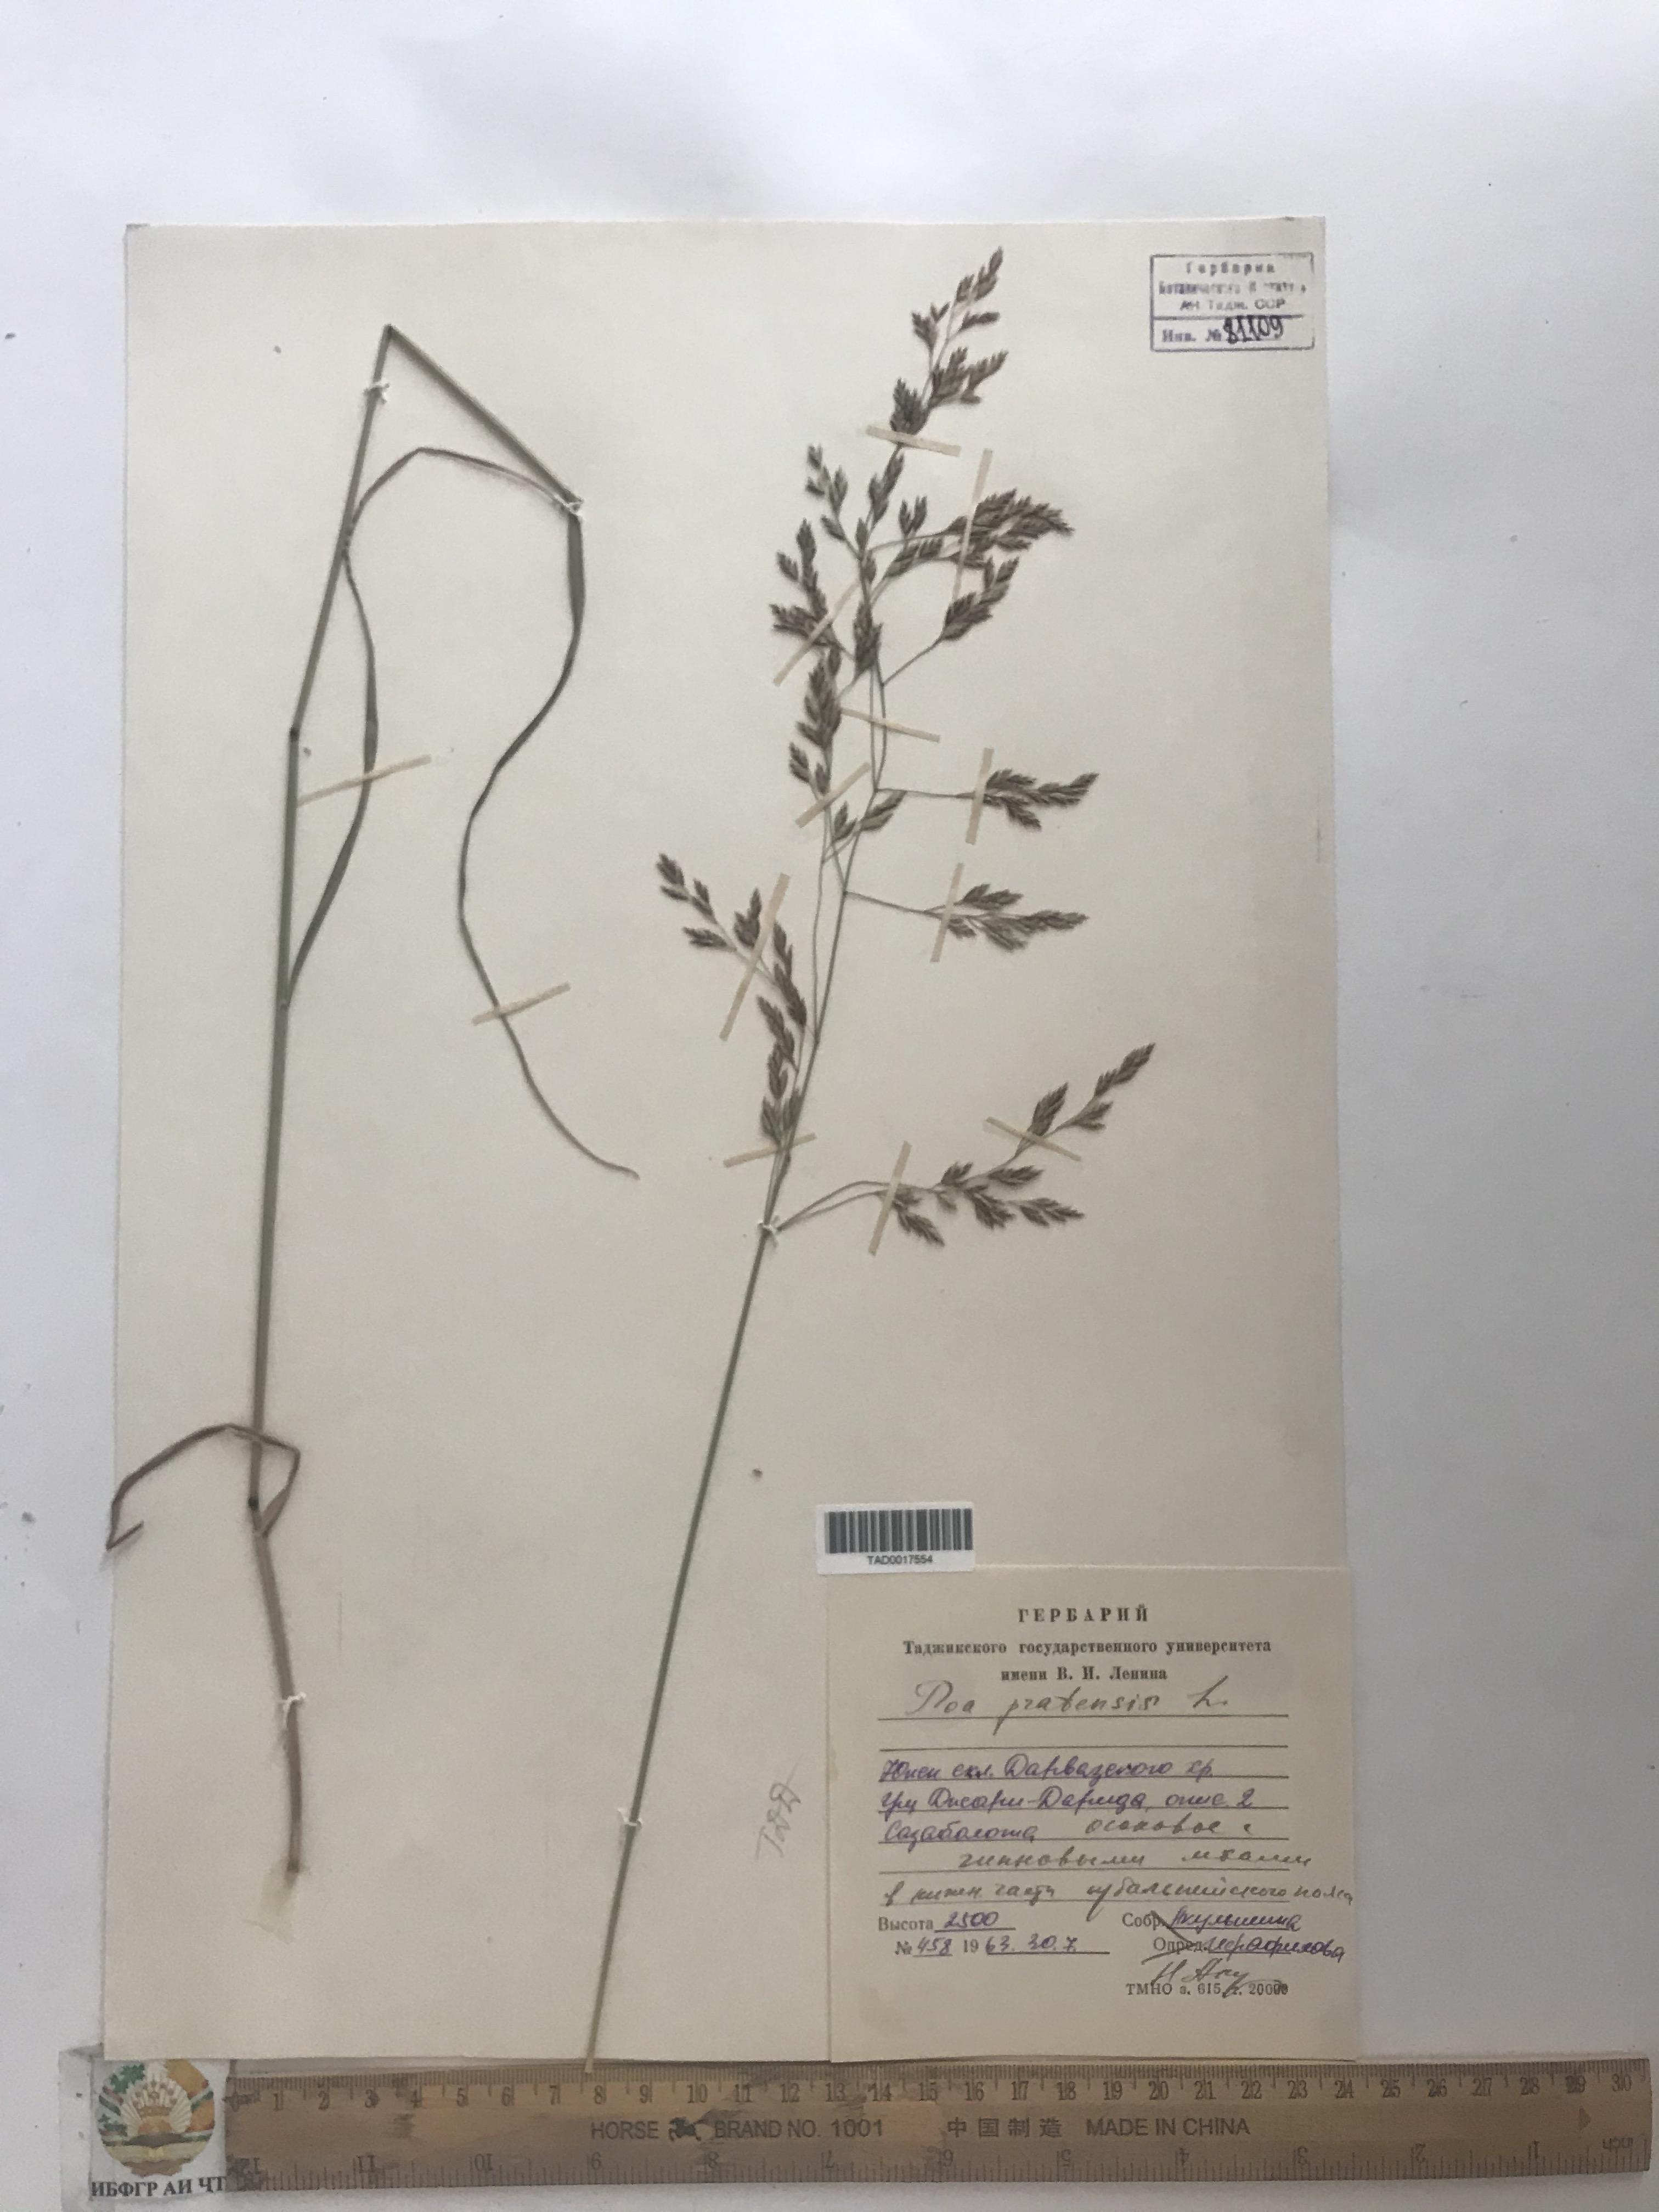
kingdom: Plantae
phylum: Tracheophyta
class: Liliopsida
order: Poales
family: Poaceae
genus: Poa
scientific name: Poa pratensis
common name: Kentucky bluegrass
